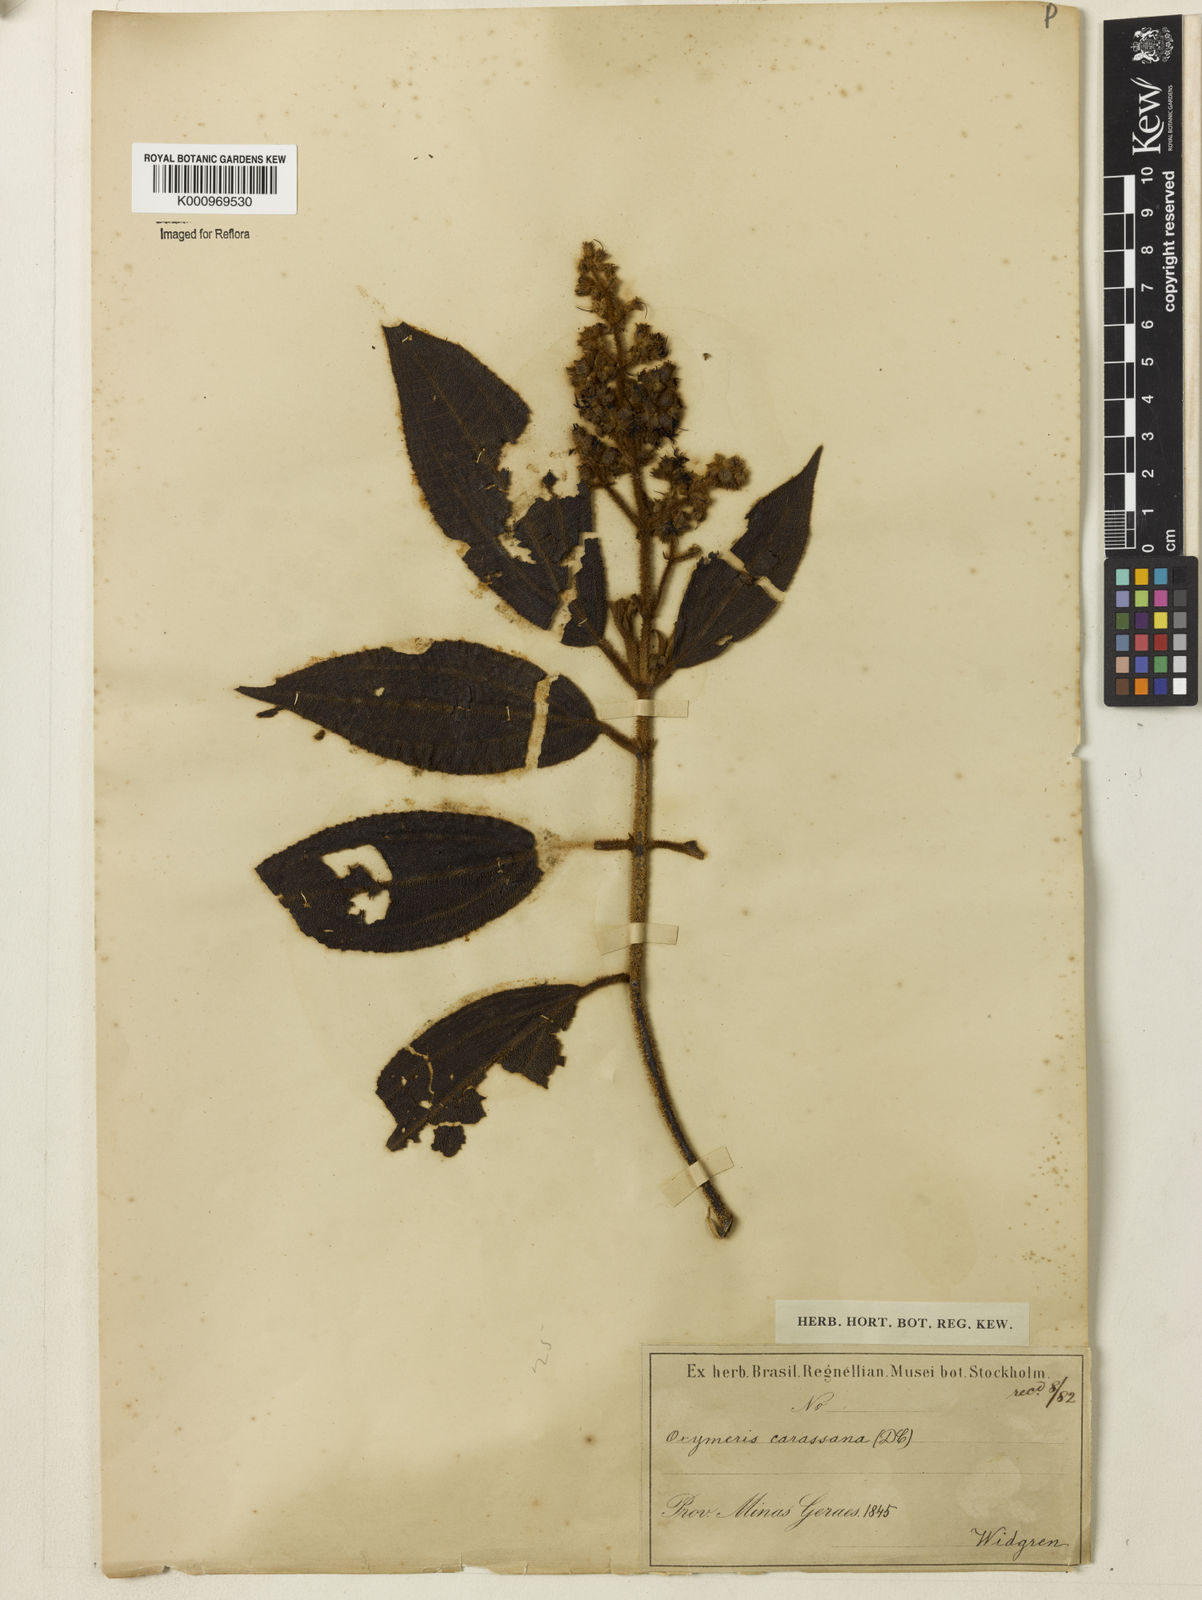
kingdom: Plantae
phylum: Tracheophyta
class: Magnoliopsida
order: Myrtales
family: Melastomataceae
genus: Miconia
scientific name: Miconia sublanata
